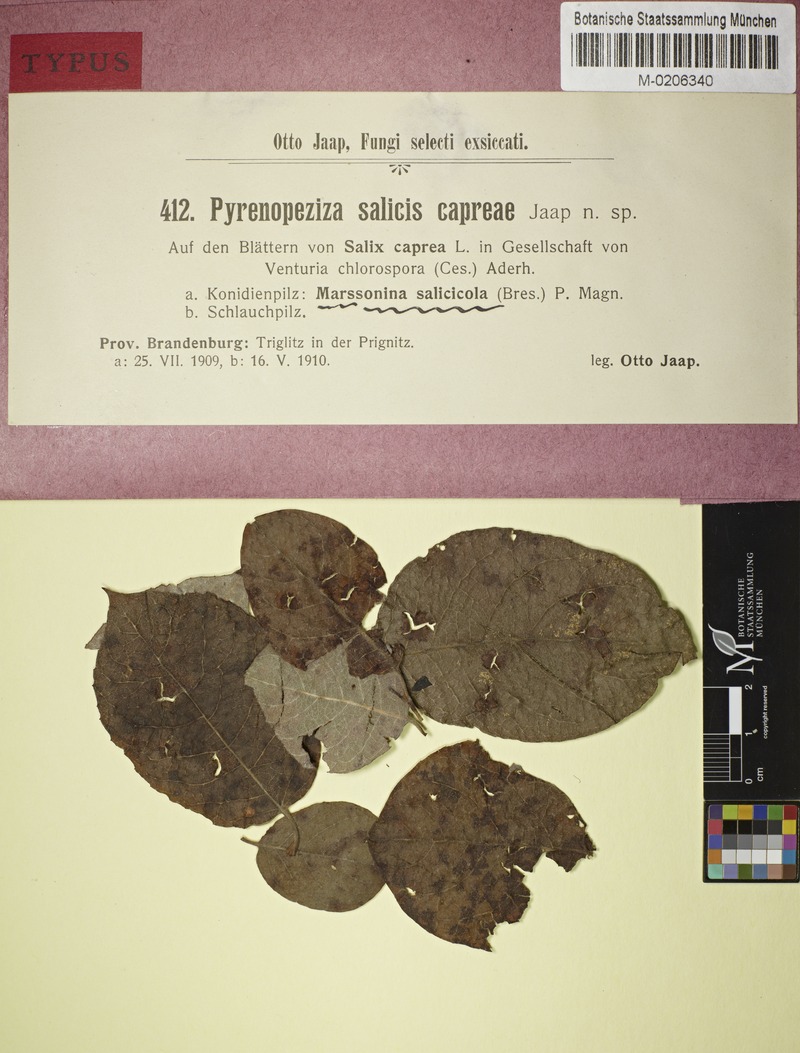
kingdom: Plantae
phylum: Tracheophyta
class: Magnoliopsida
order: Malpighiales
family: Salicaceae
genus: Salix
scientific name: Salix caprea
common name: Goat willow
